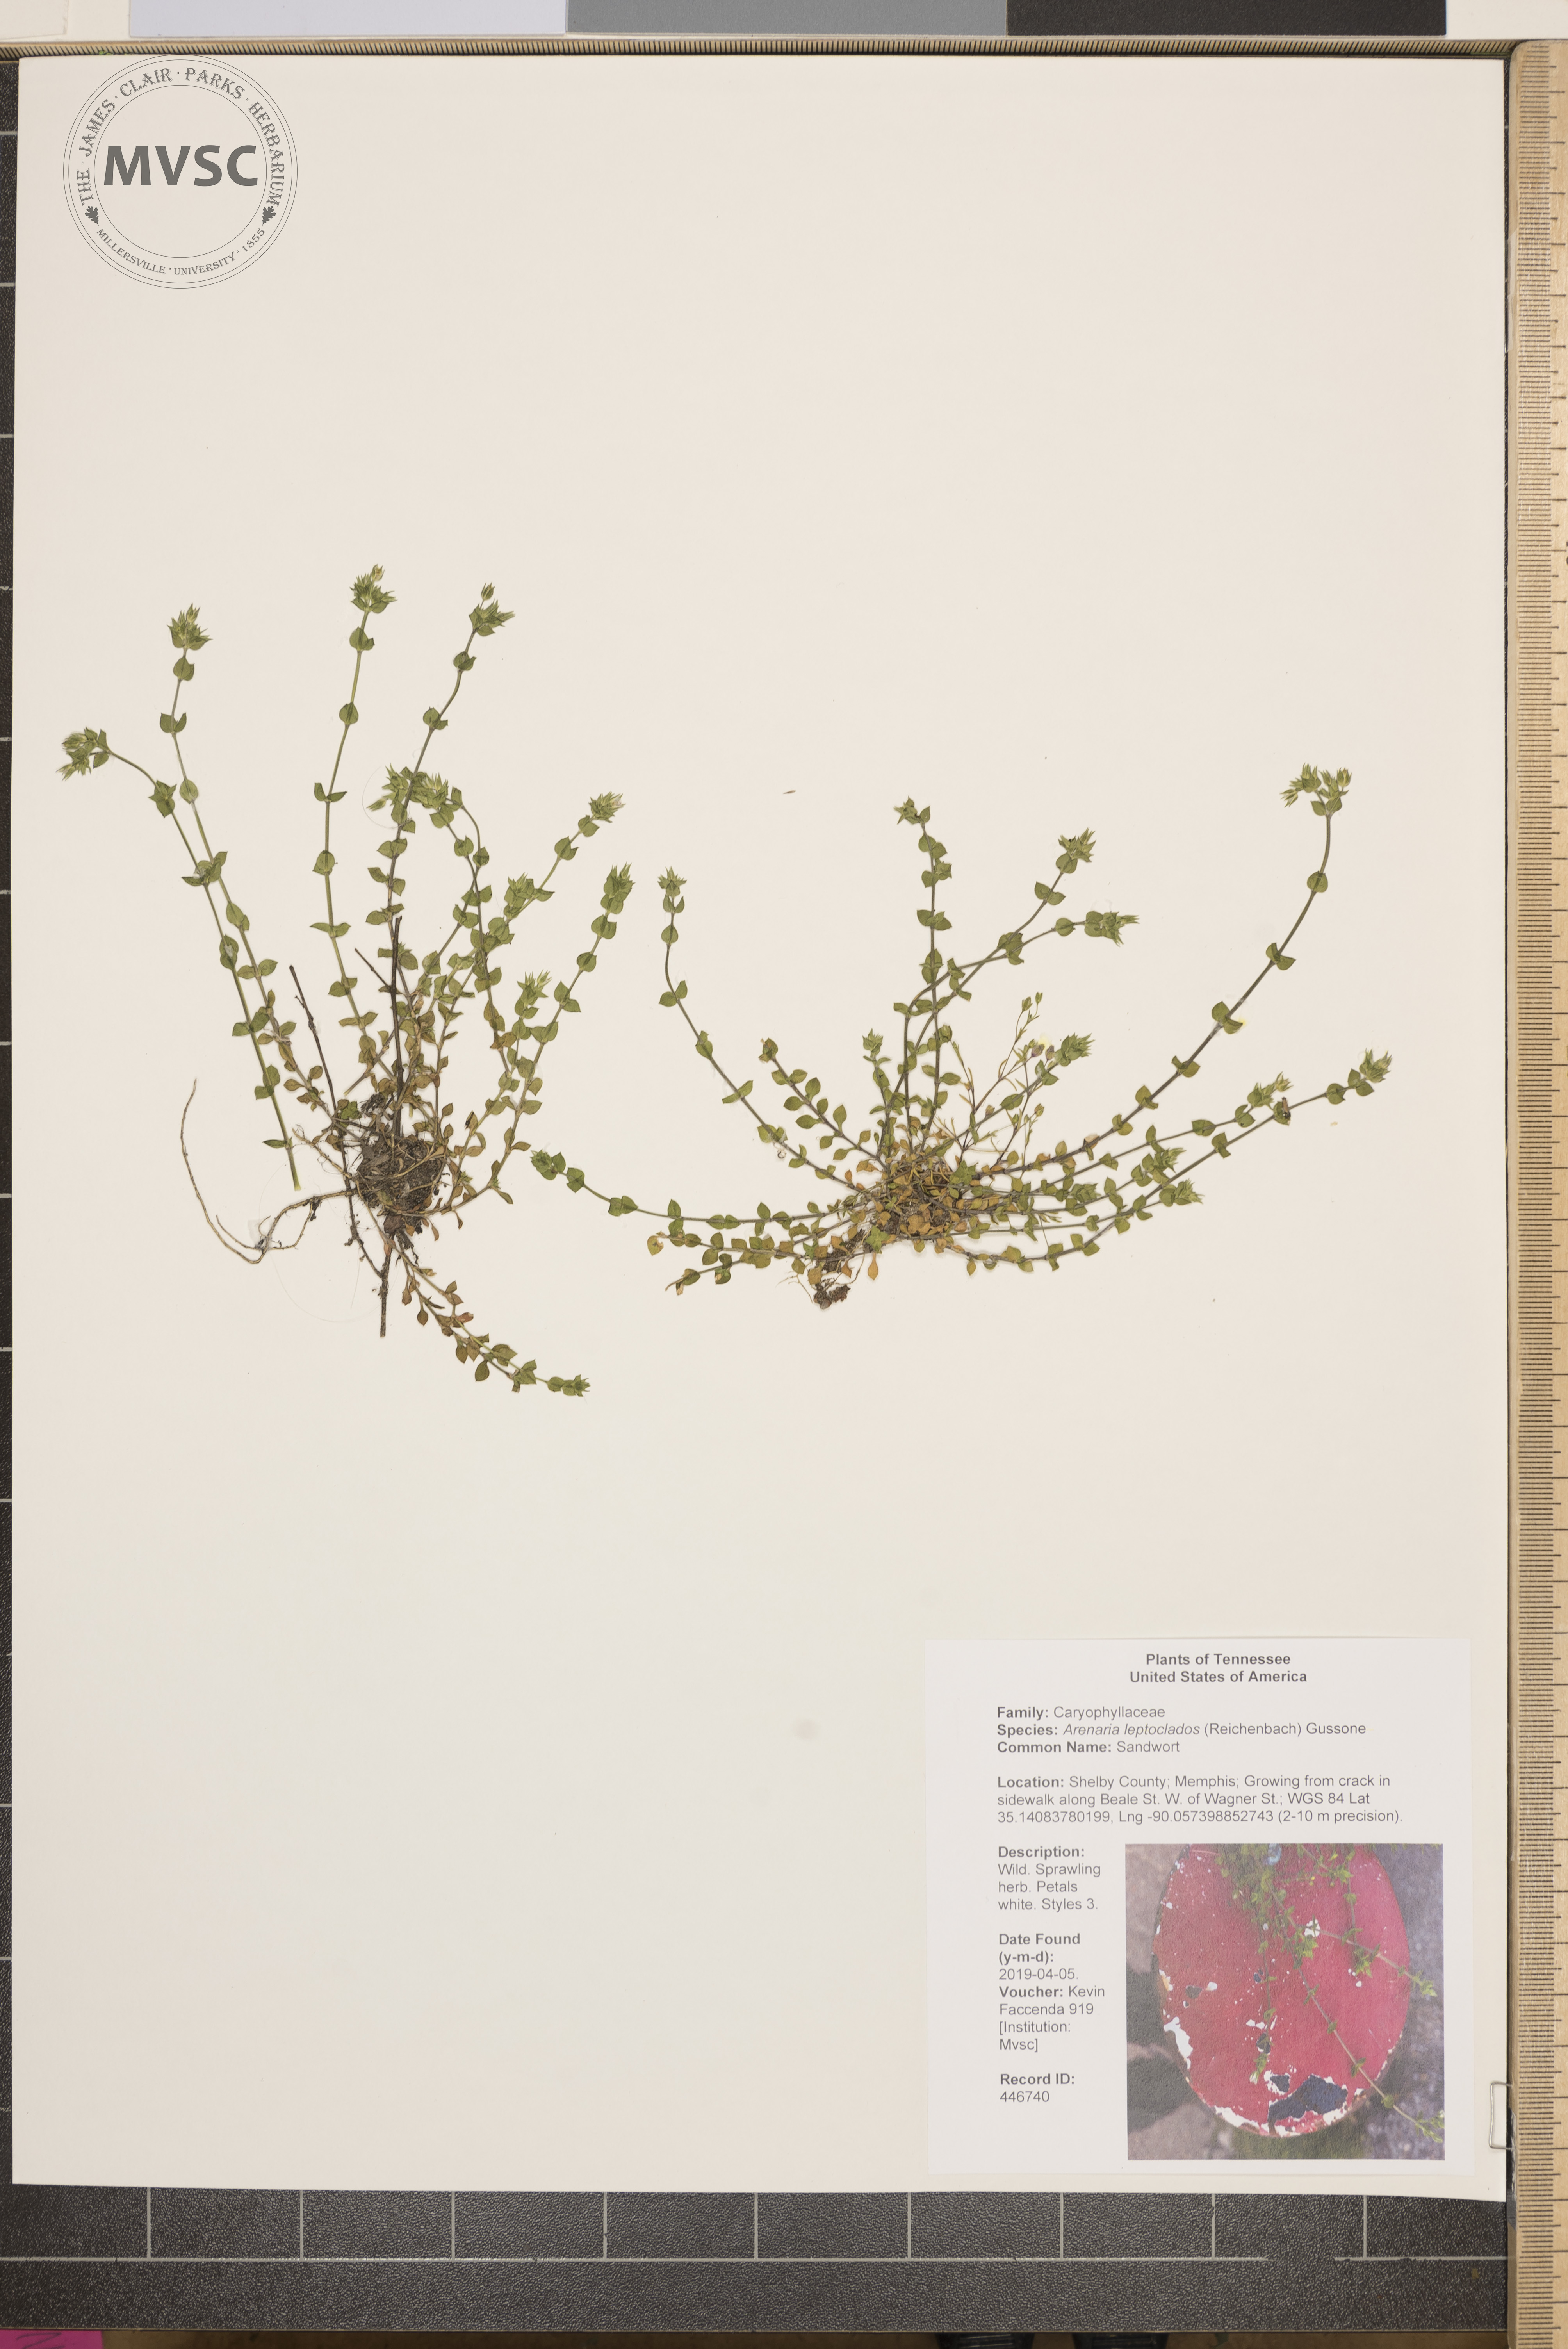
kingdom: Plantae
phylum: Tracheophyta
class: Magnoliopsida
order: Caryophyllales
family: Caryophyllaceae
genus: Arenaria
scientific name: Arenaria leptoclados
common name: Sandwort
